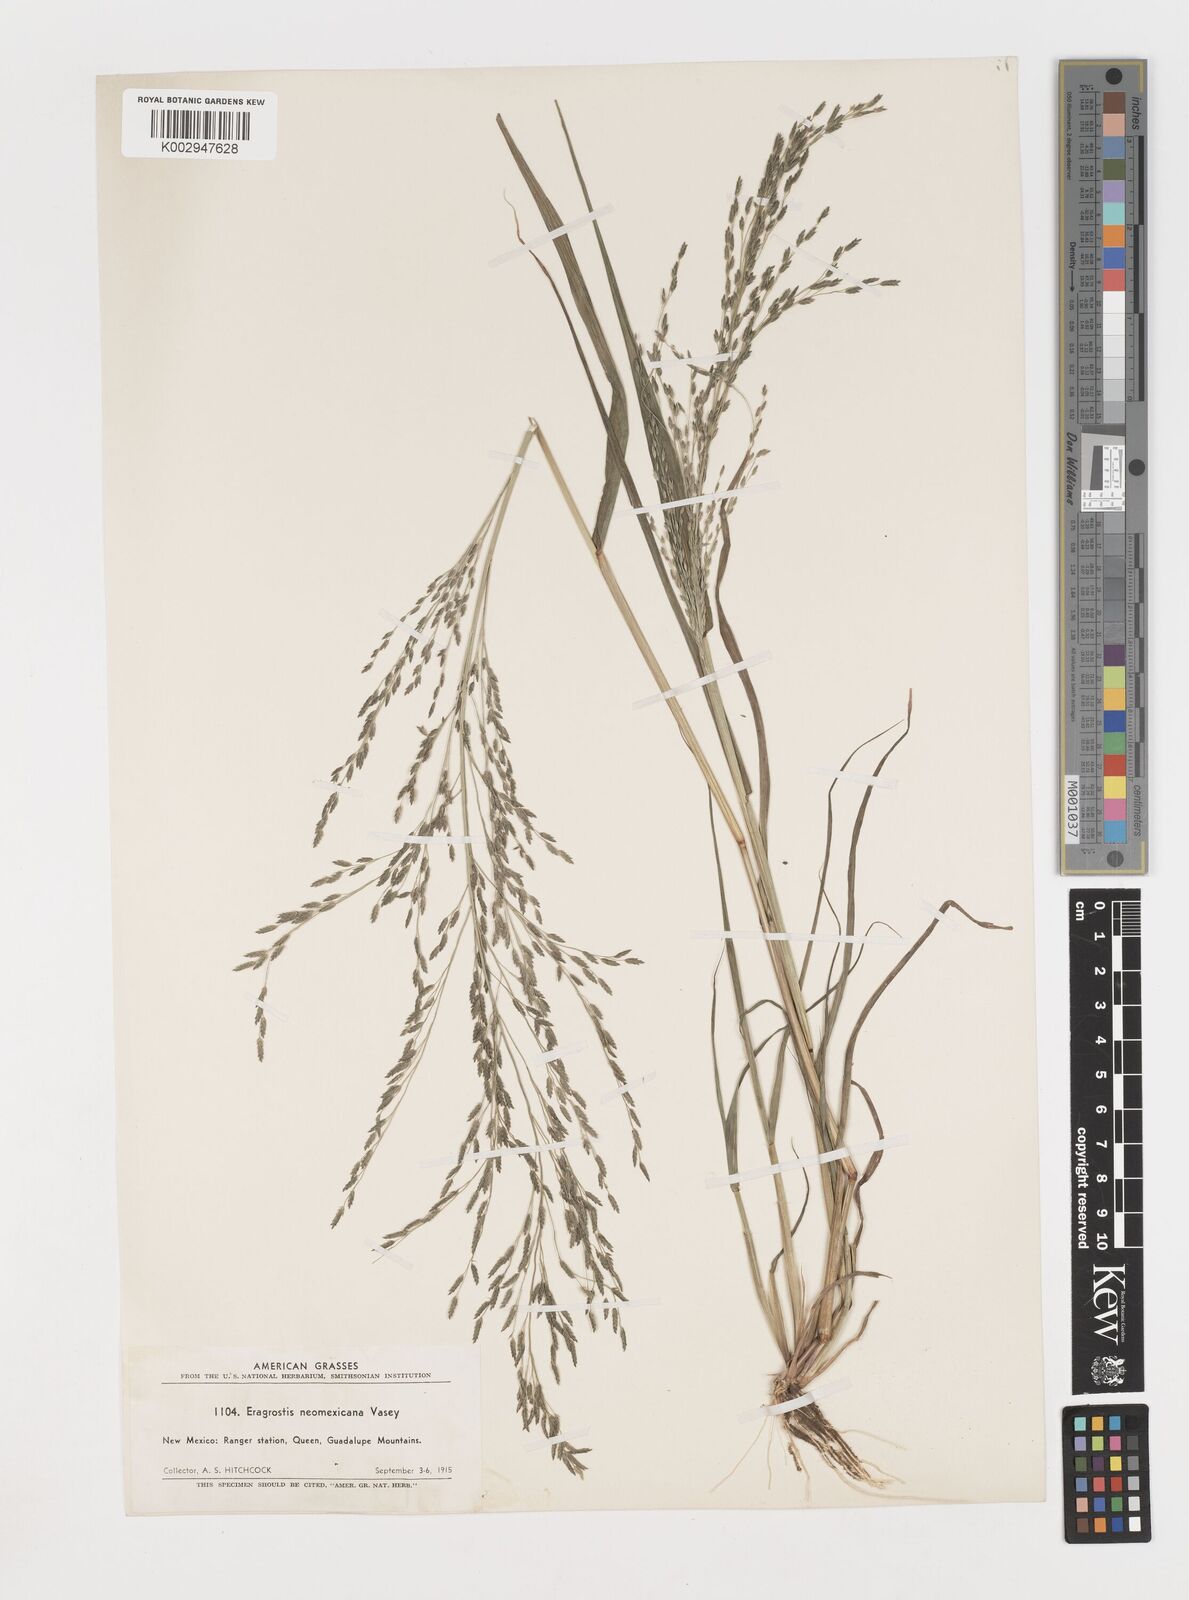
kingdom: Plantae
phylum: Tracheophyta
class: Liliopsida
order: Poales
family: Poaceae
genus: Eragrostis
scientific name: Eragrostis mexicana
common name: Mexican love grass
